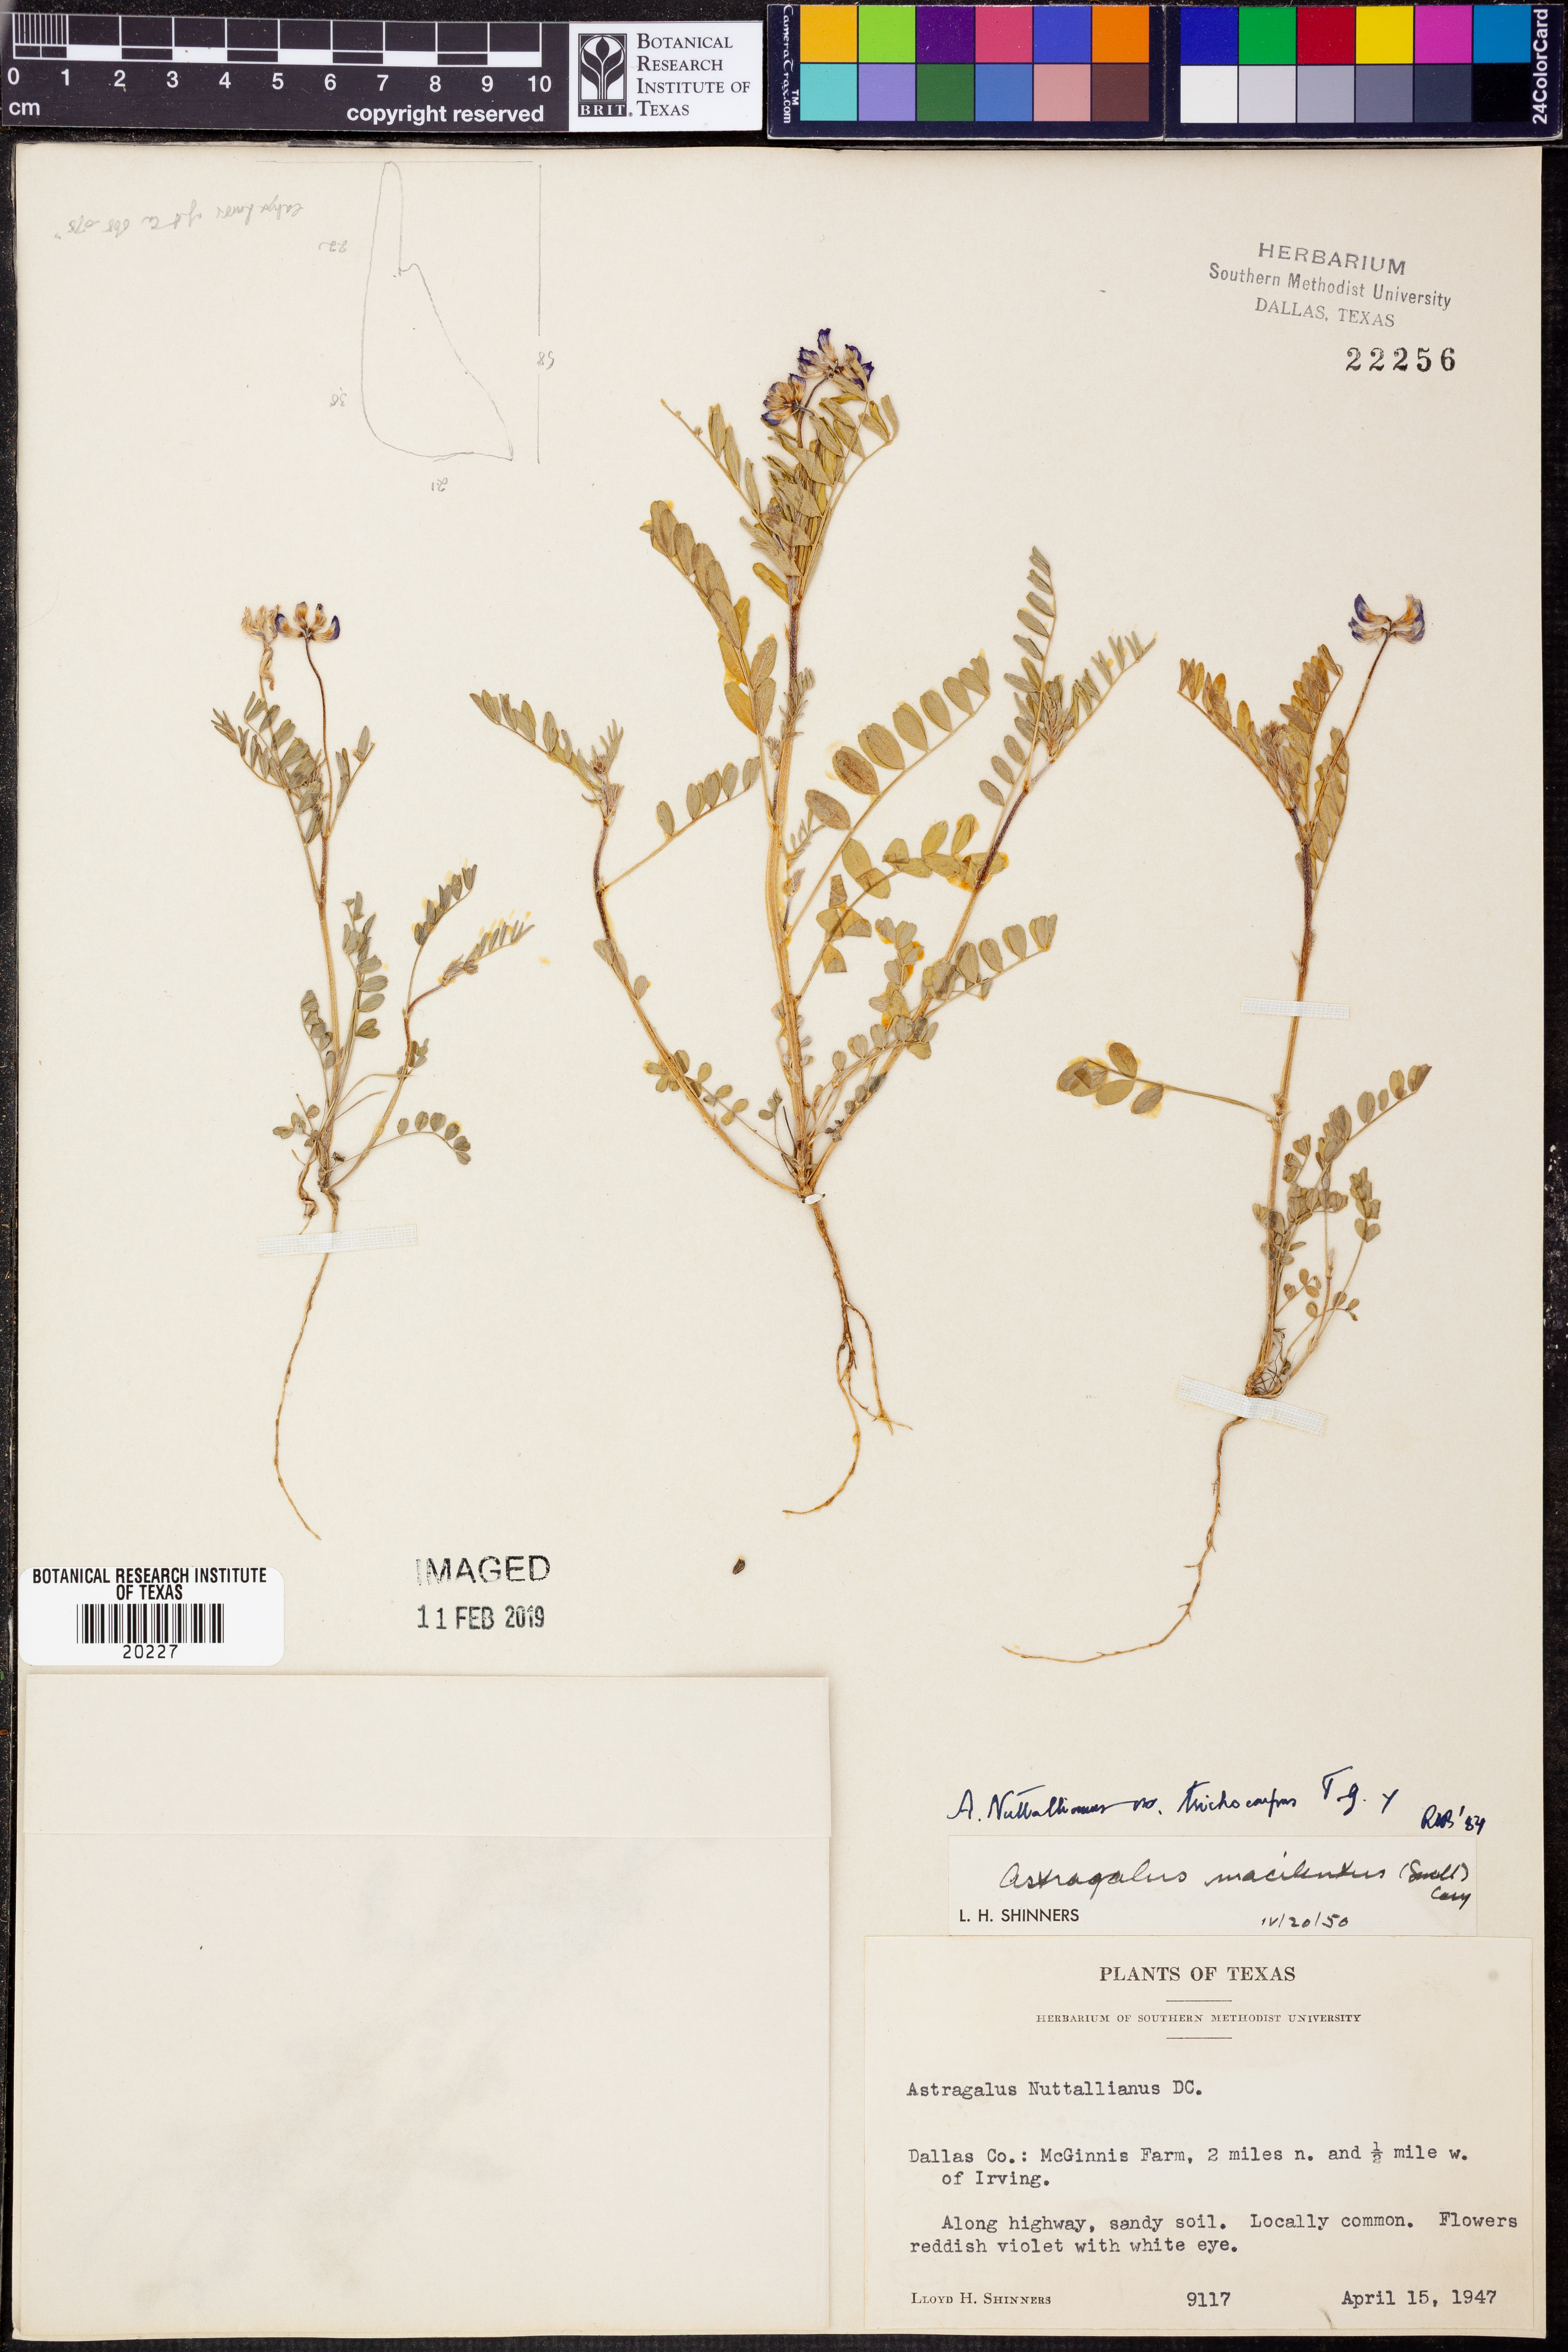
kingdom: Plantae
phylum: Tracheophyta
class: Magnoliopsida
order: Fabales
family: Fabaceae
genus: Astragalus
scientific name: Astragalus nuttallianus
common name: Smallflowered milkvetch
